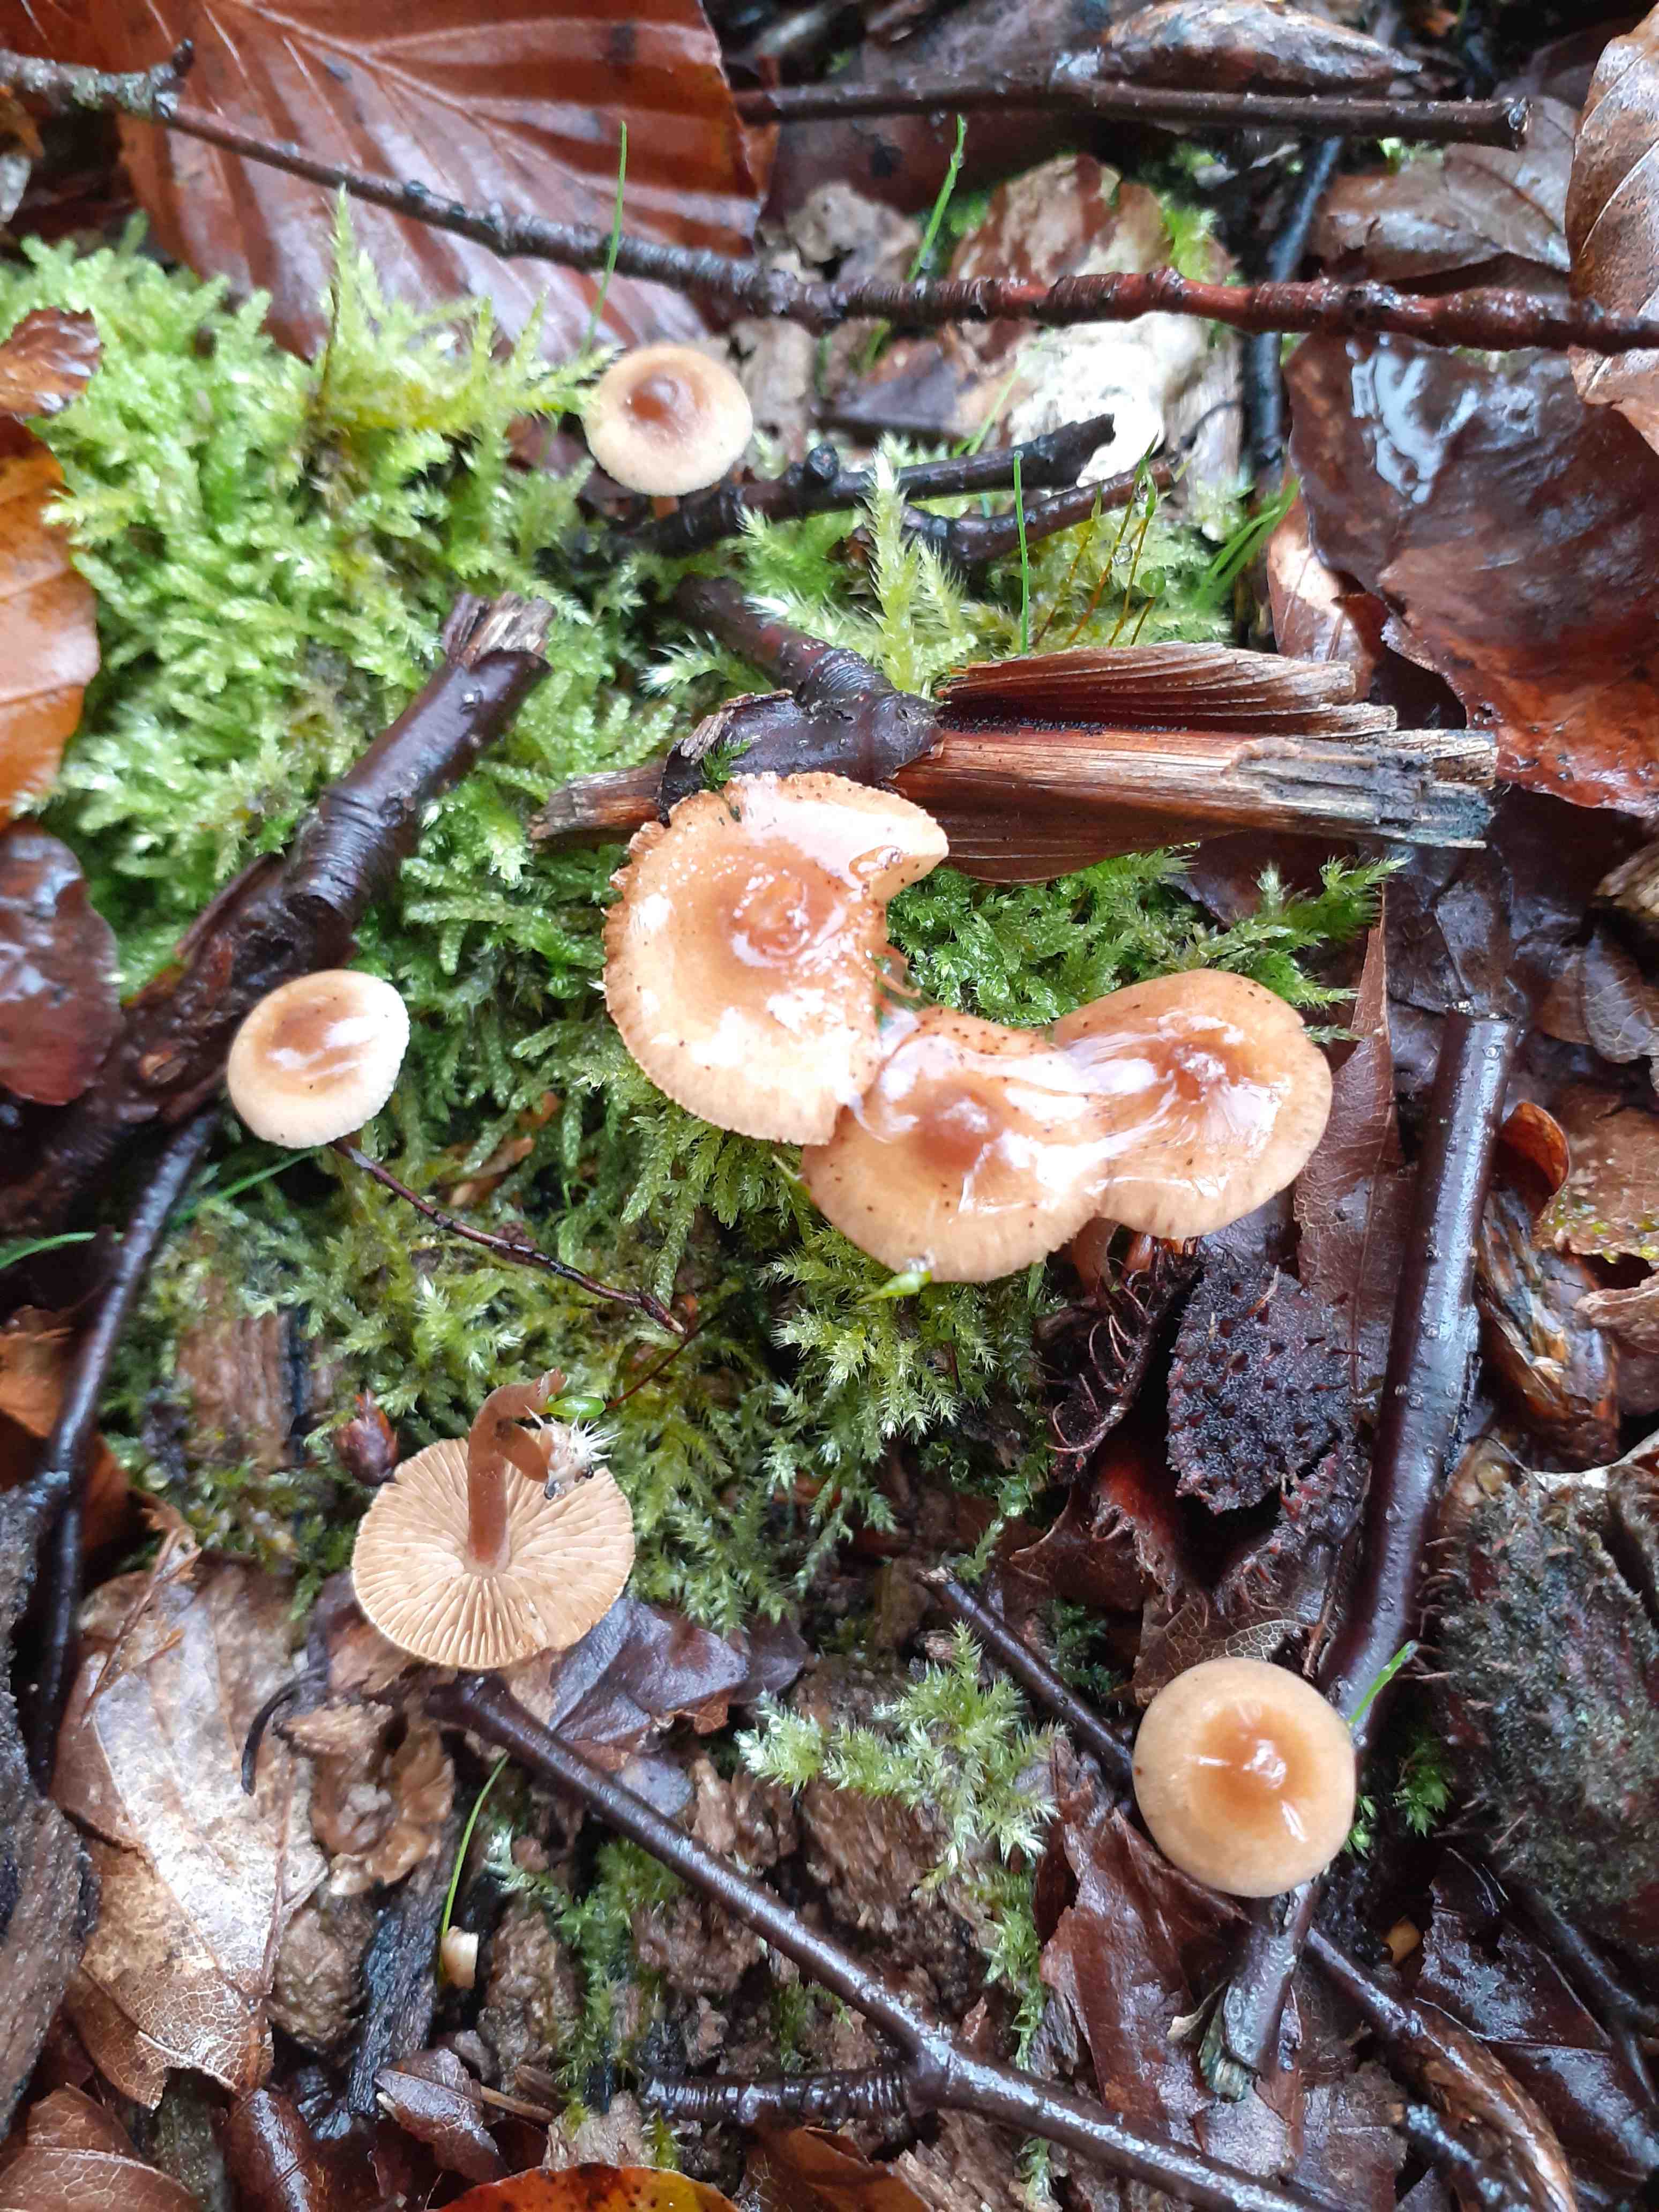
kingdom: Fungi
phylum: Basidiomycota
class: Agaricomycetes
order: Agaricales
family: Inocybaceae
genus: Inocybe
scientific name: Inocybe petiginosa
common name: liden trævlhat
